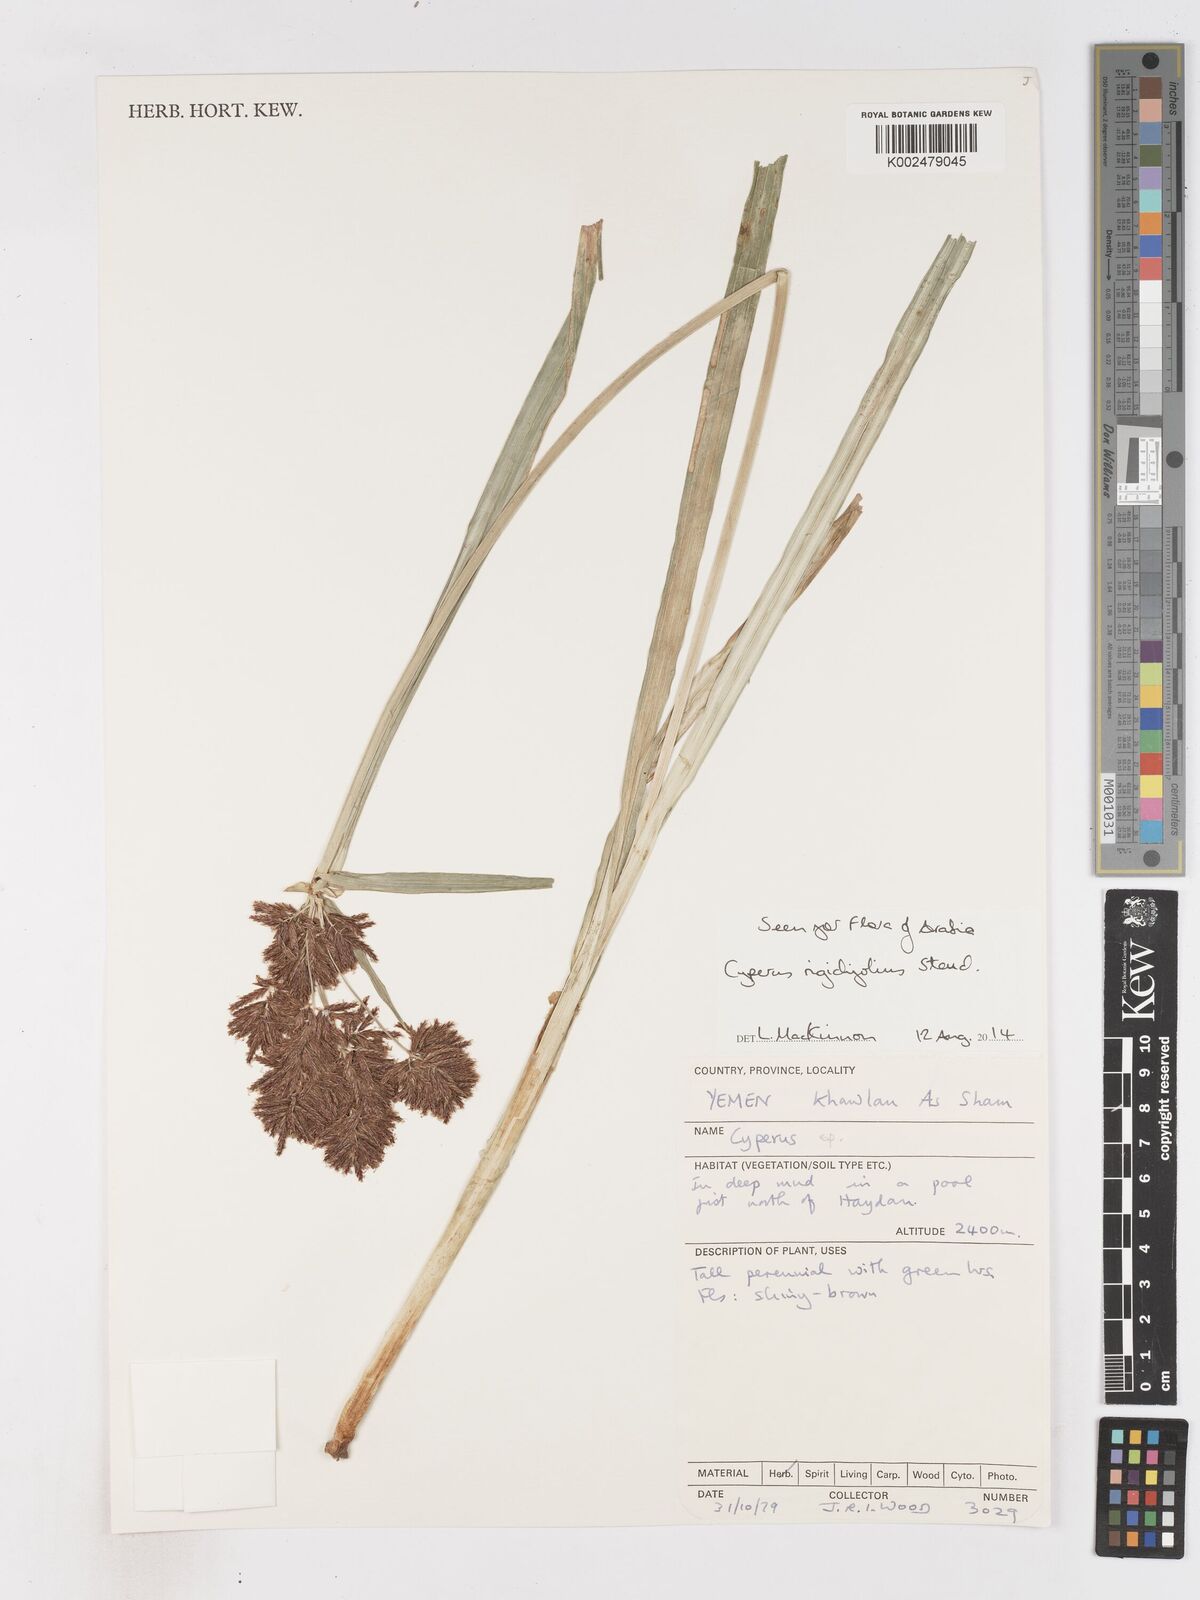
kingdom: Plantae
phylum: Tracheophyta
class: Liliopsida
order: Poales
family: Cyperaceae
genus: Cyperus
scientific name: Cyperus rigidifolius
